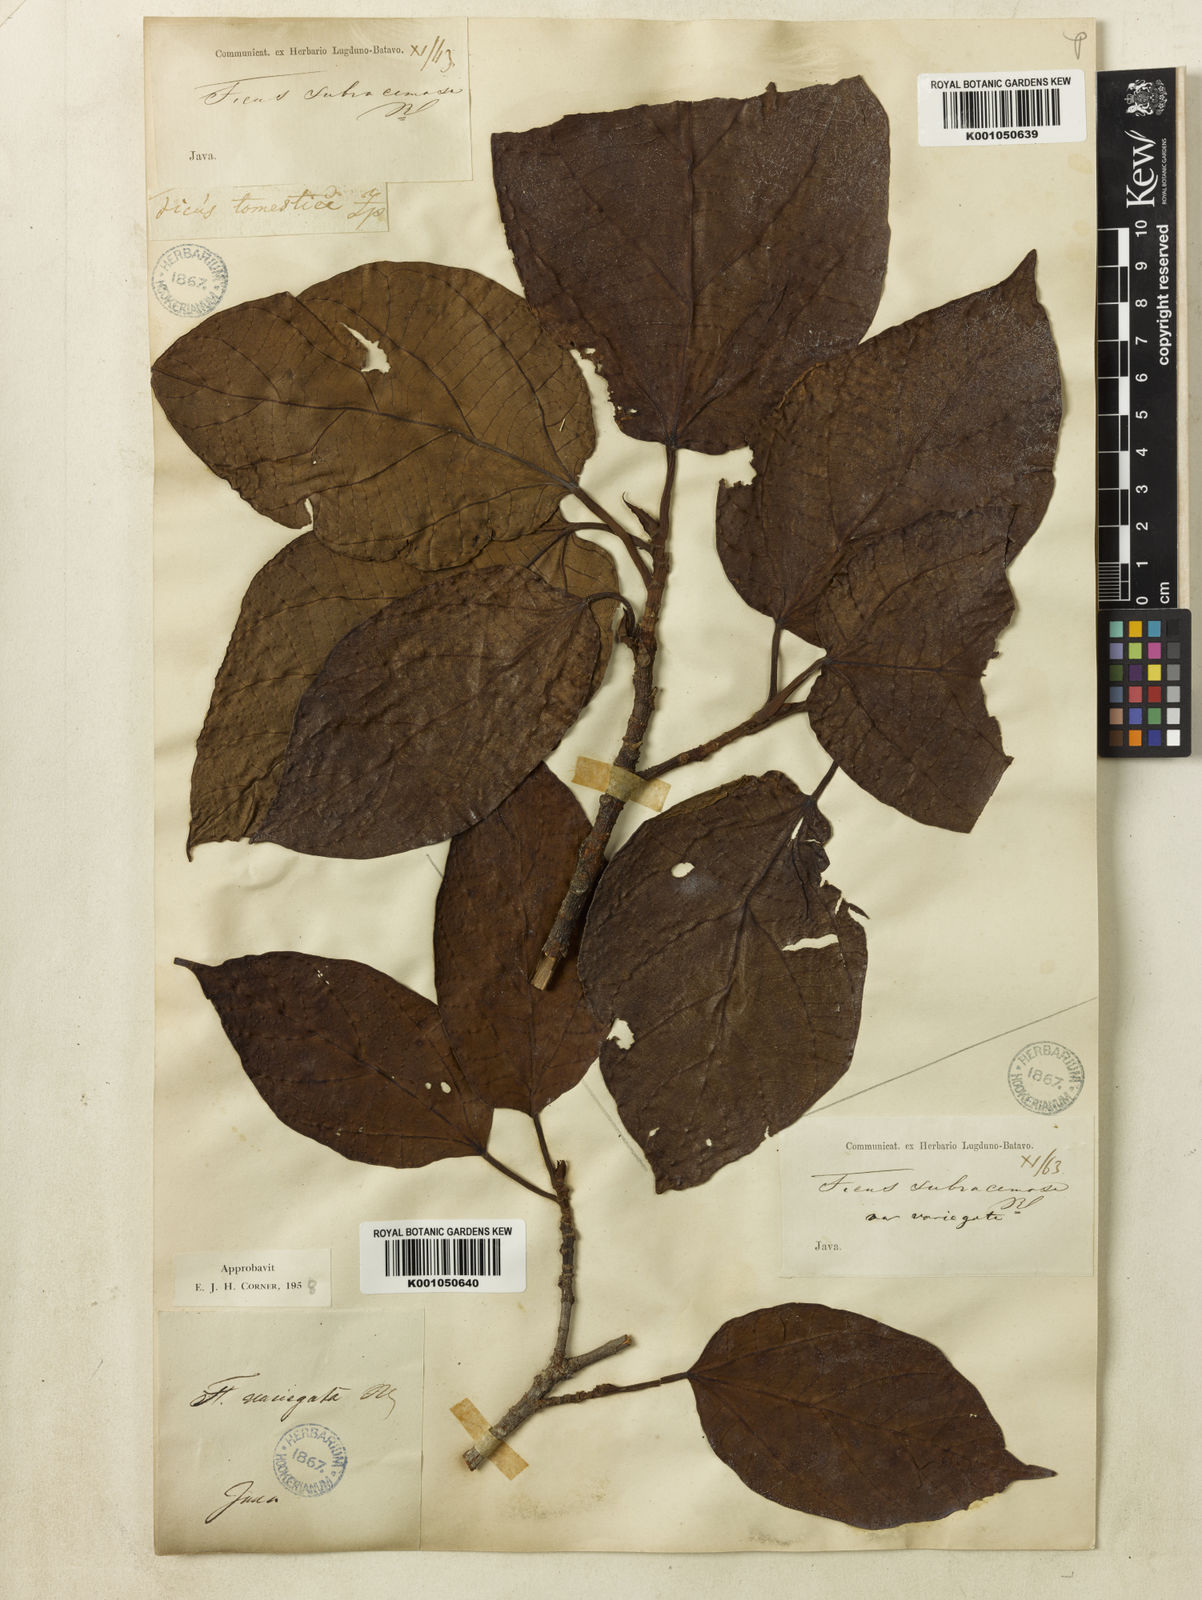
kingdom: Plantae
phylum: Tracheophyta
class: Magnoliopsida
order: Rosales
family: Moraceae
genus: Ficus
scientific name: Ficus variegata
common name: Variegated fig
